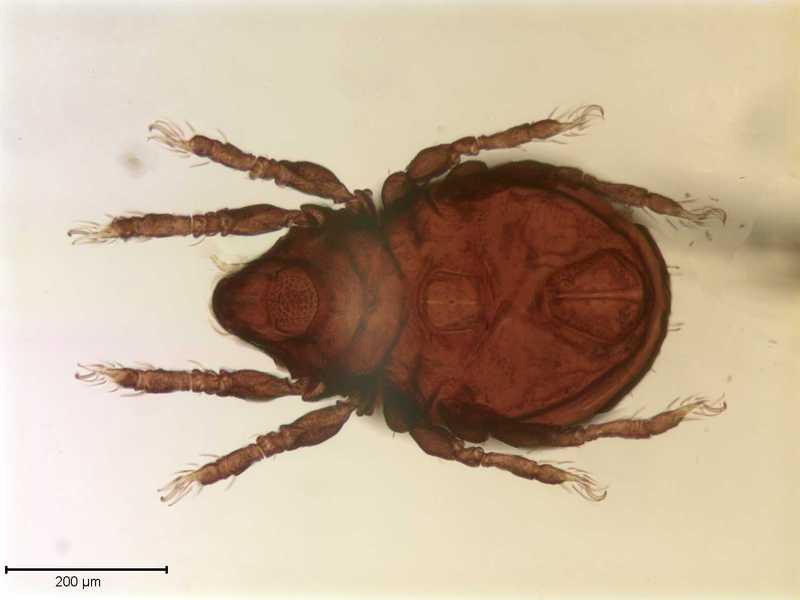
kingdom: Animalia
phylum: Arthropoda
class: Arachnida
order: Sarcoptiformes
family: Scutoverticidae
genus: Scutovertex
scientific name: Scutovertex minutus
